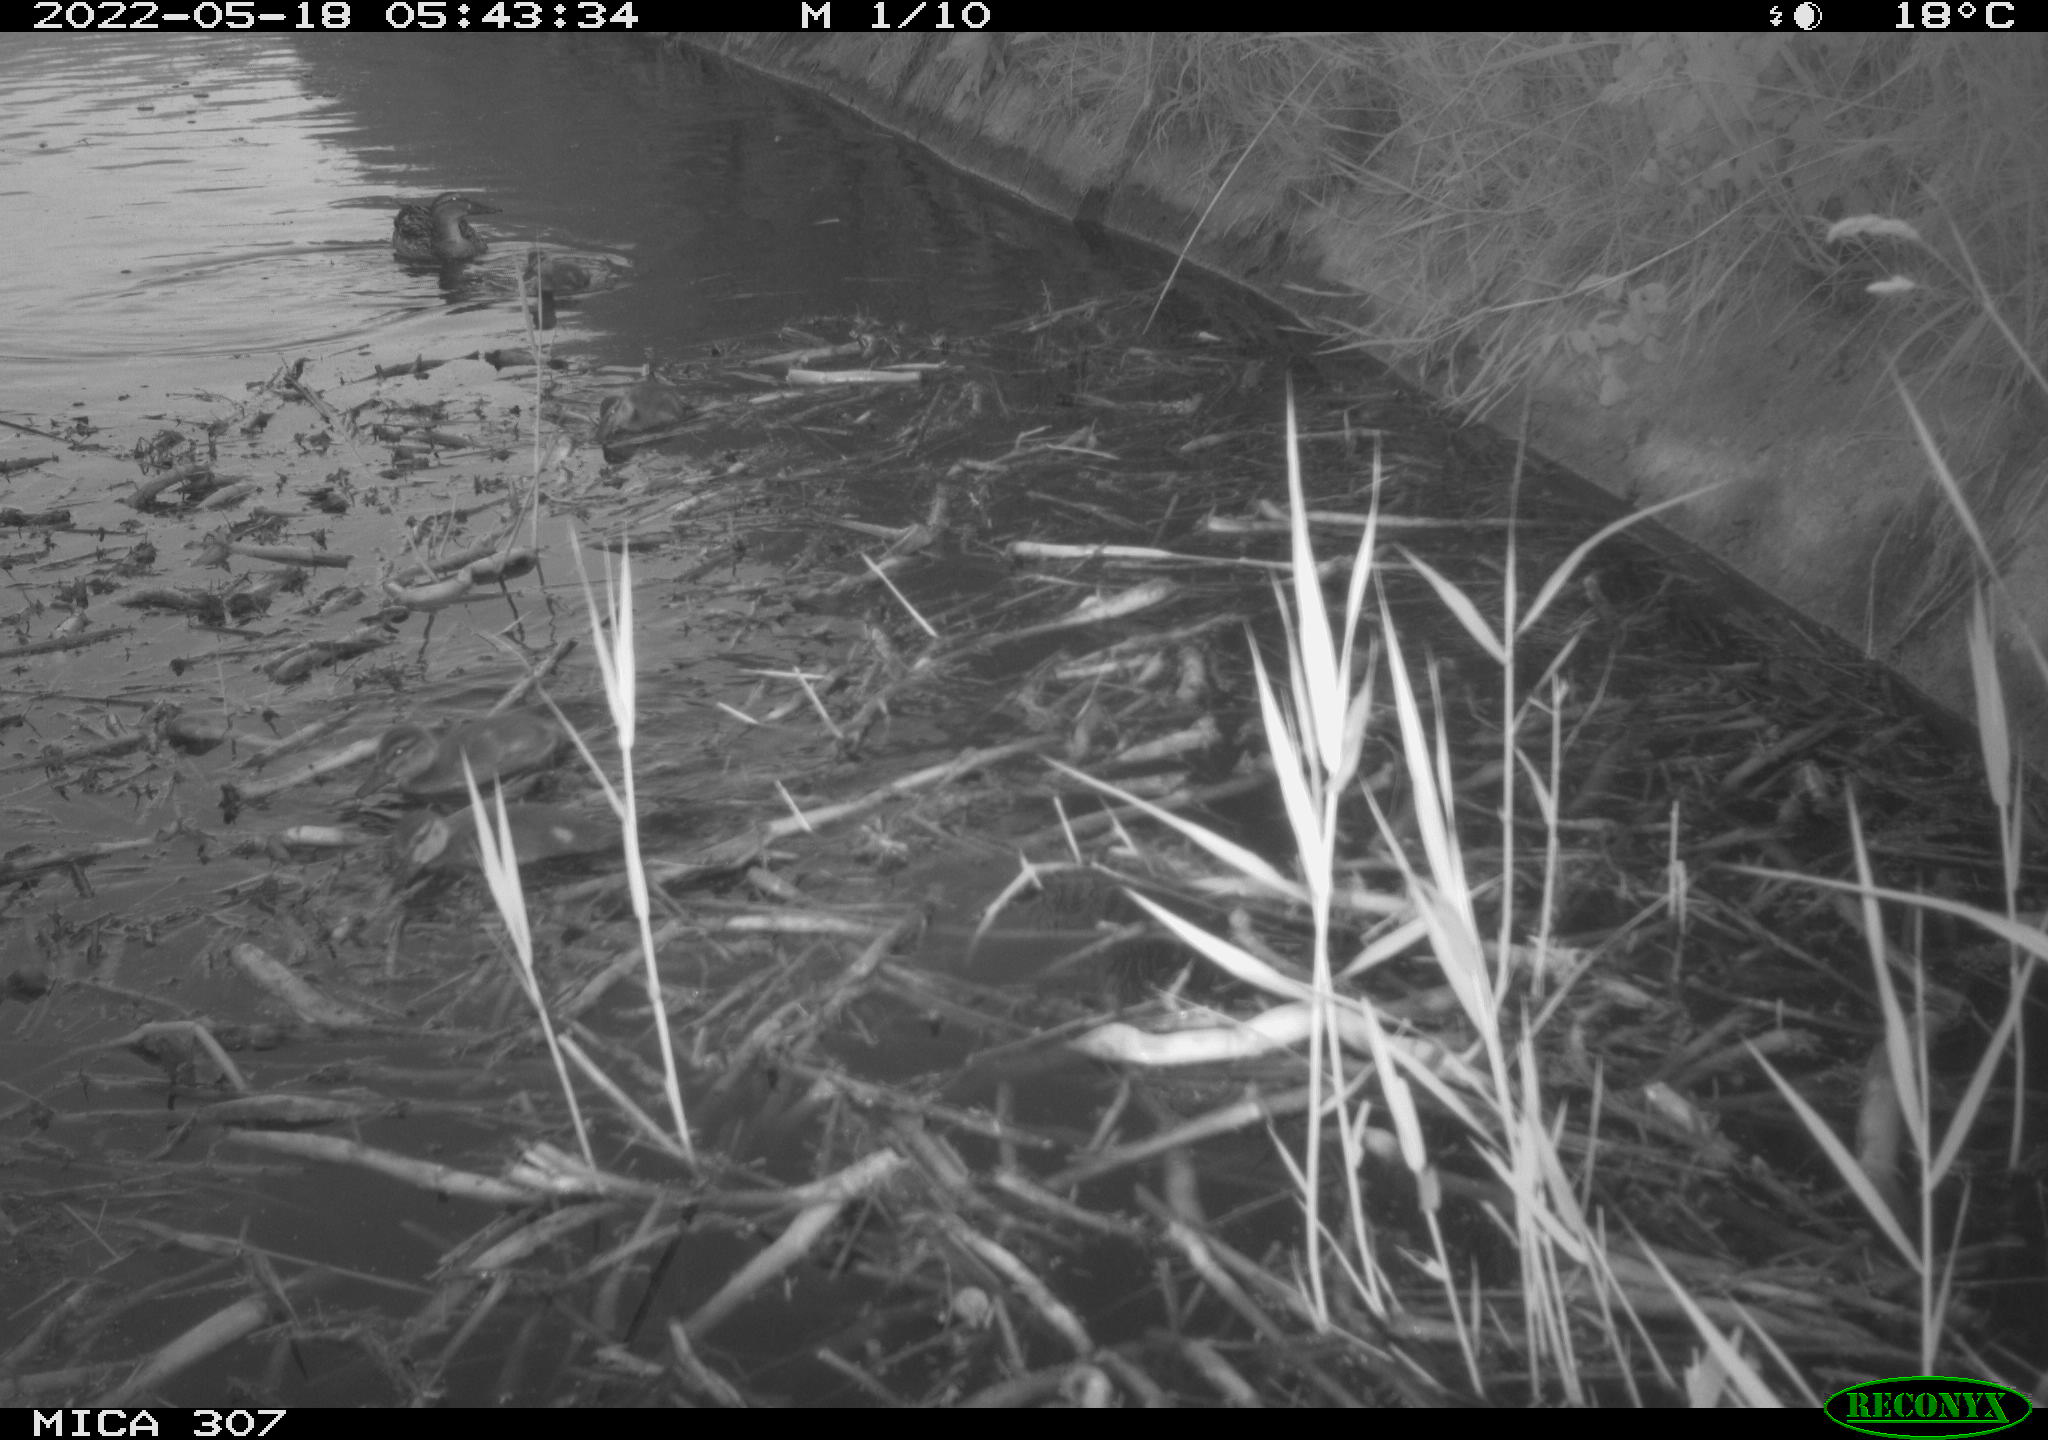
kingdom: Animalia
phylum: Chordata
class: Aves
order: Anseriformes
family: Anatidae
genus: Anas
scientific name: Anas platyrhynchos
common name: Mallard
